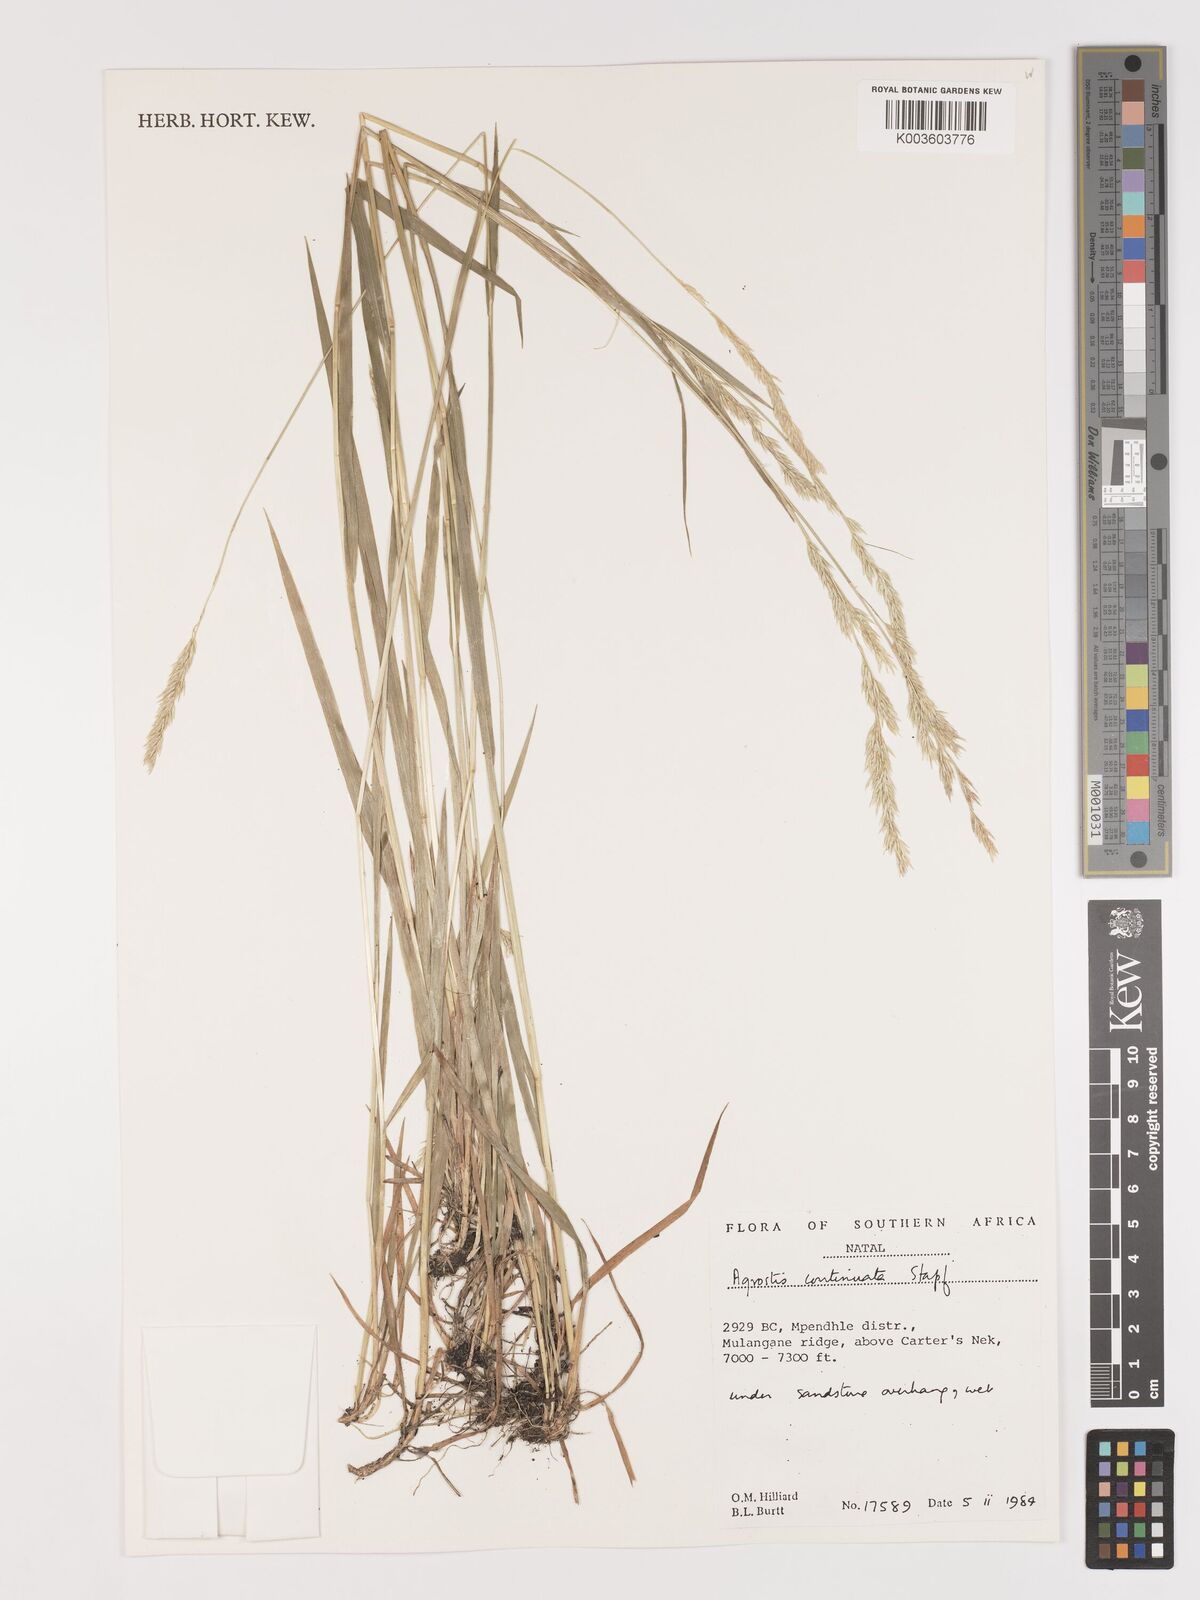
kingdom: Plantae
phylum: Tracheophyta
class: Liliopsida
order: Poales
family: Poaceae
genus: Agrostis
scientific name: Agrostis continuata
